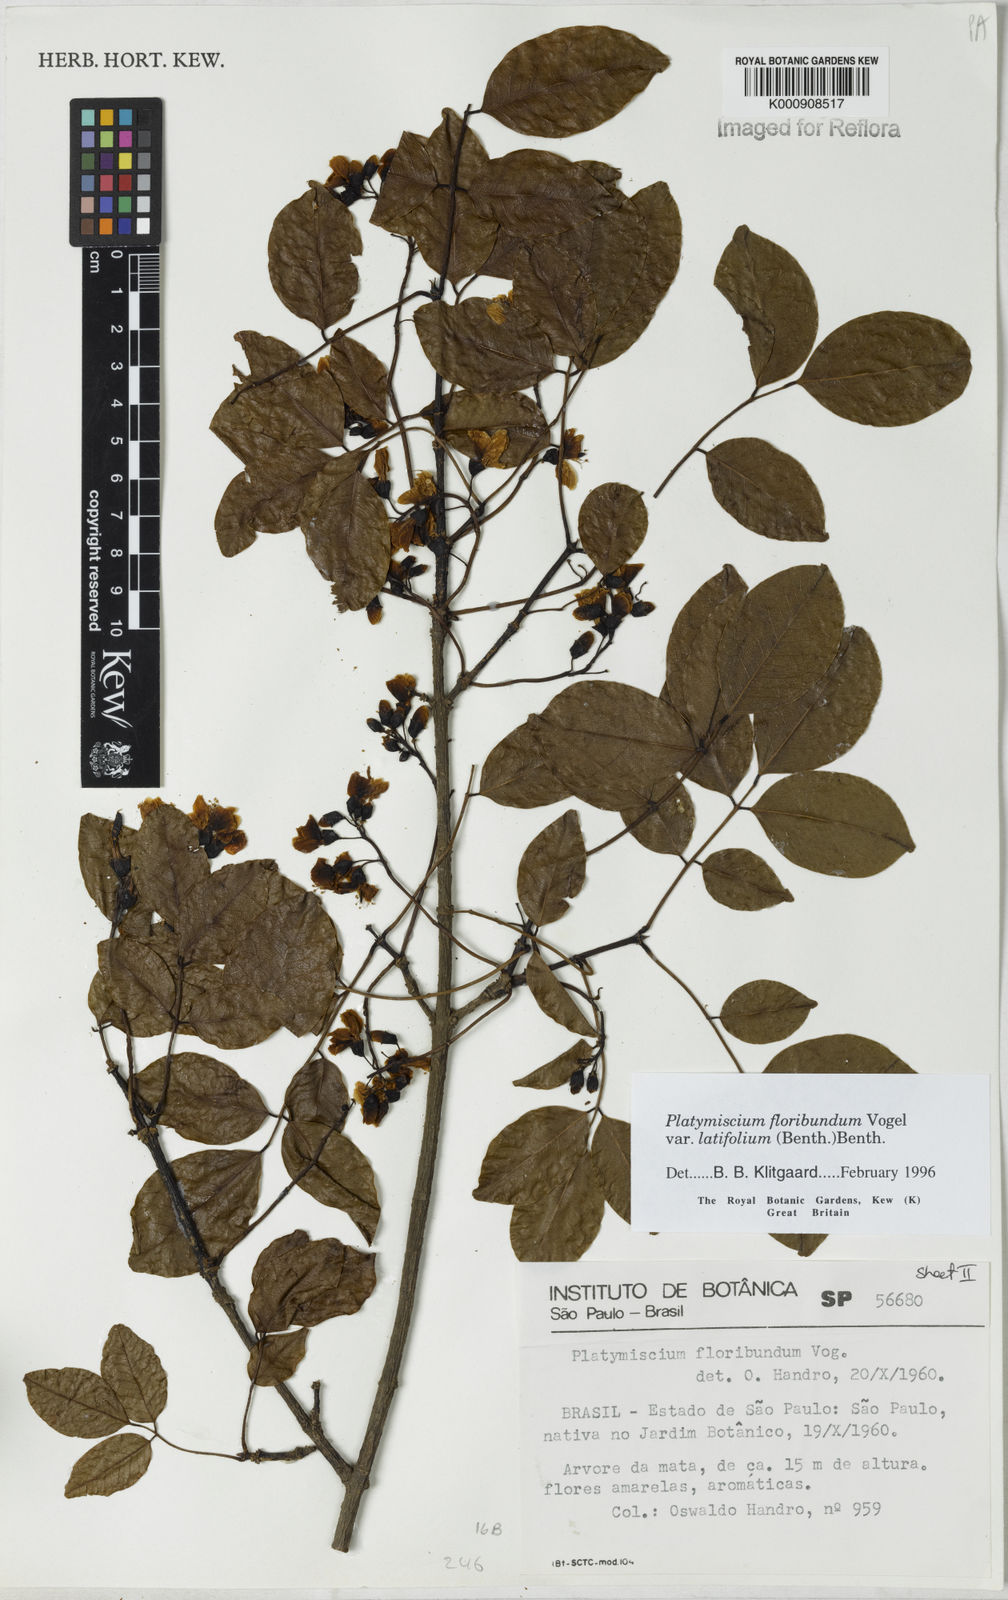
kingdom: Plantae
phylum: Tracheophyta
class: Magnoliopsida
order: Fabales
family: Fabaceae
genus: Platymiscium
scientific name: Platymiscium floribundum
